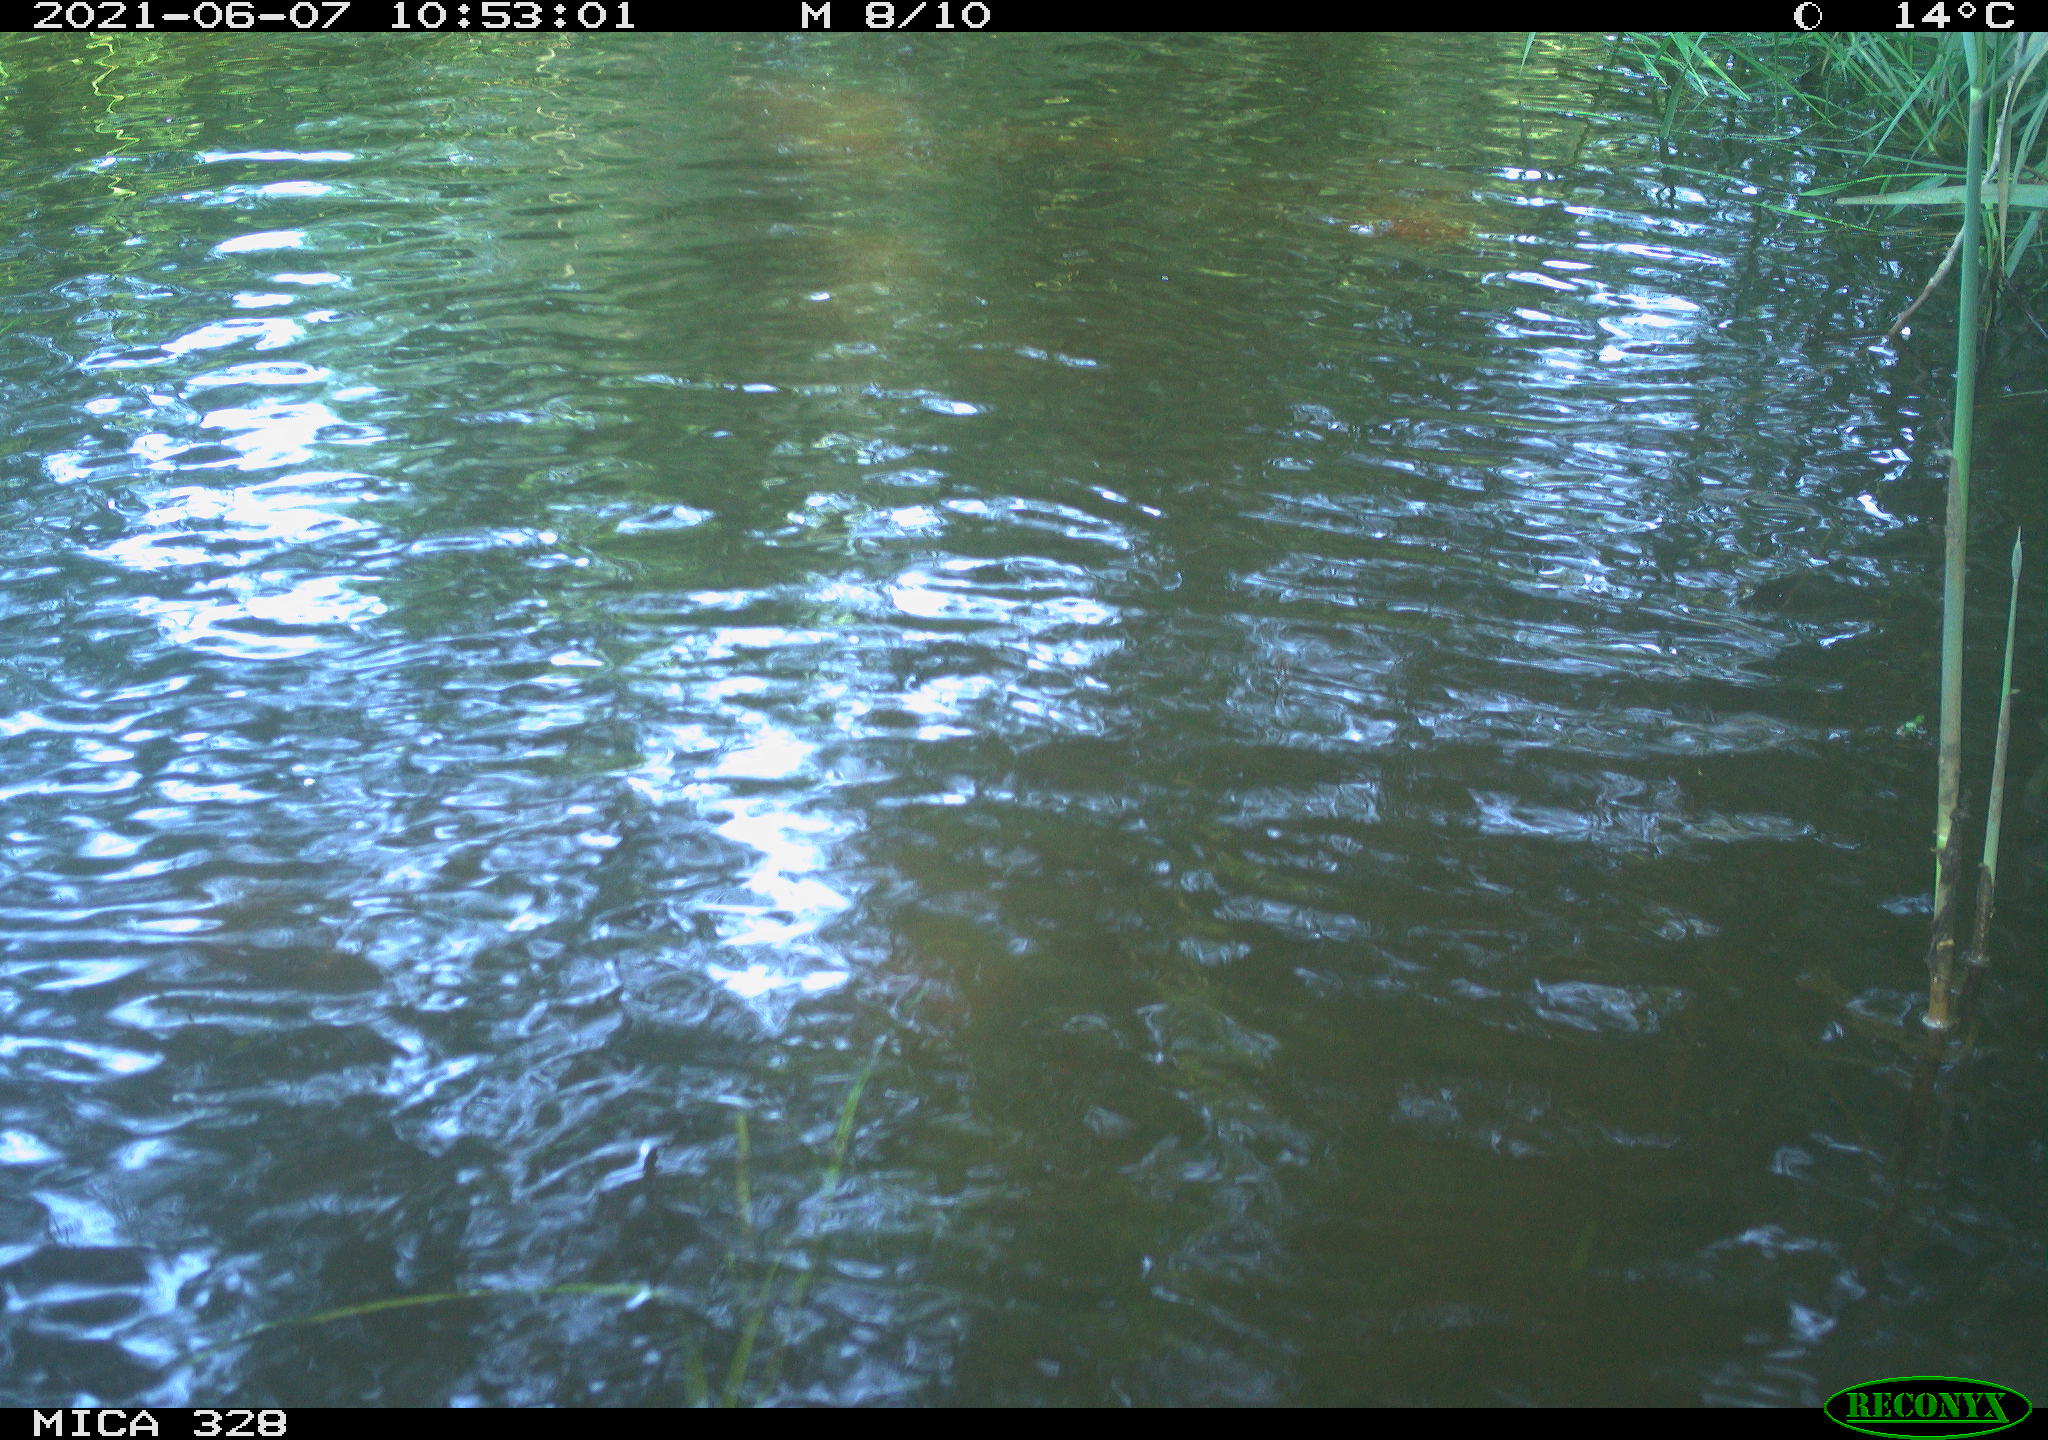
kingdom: Animalia
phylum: Chordata
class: Mammalia
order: Rodentia
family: Cricetidae
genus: Ondatra
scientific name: Ondatra zibethicus
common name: Muskrat
